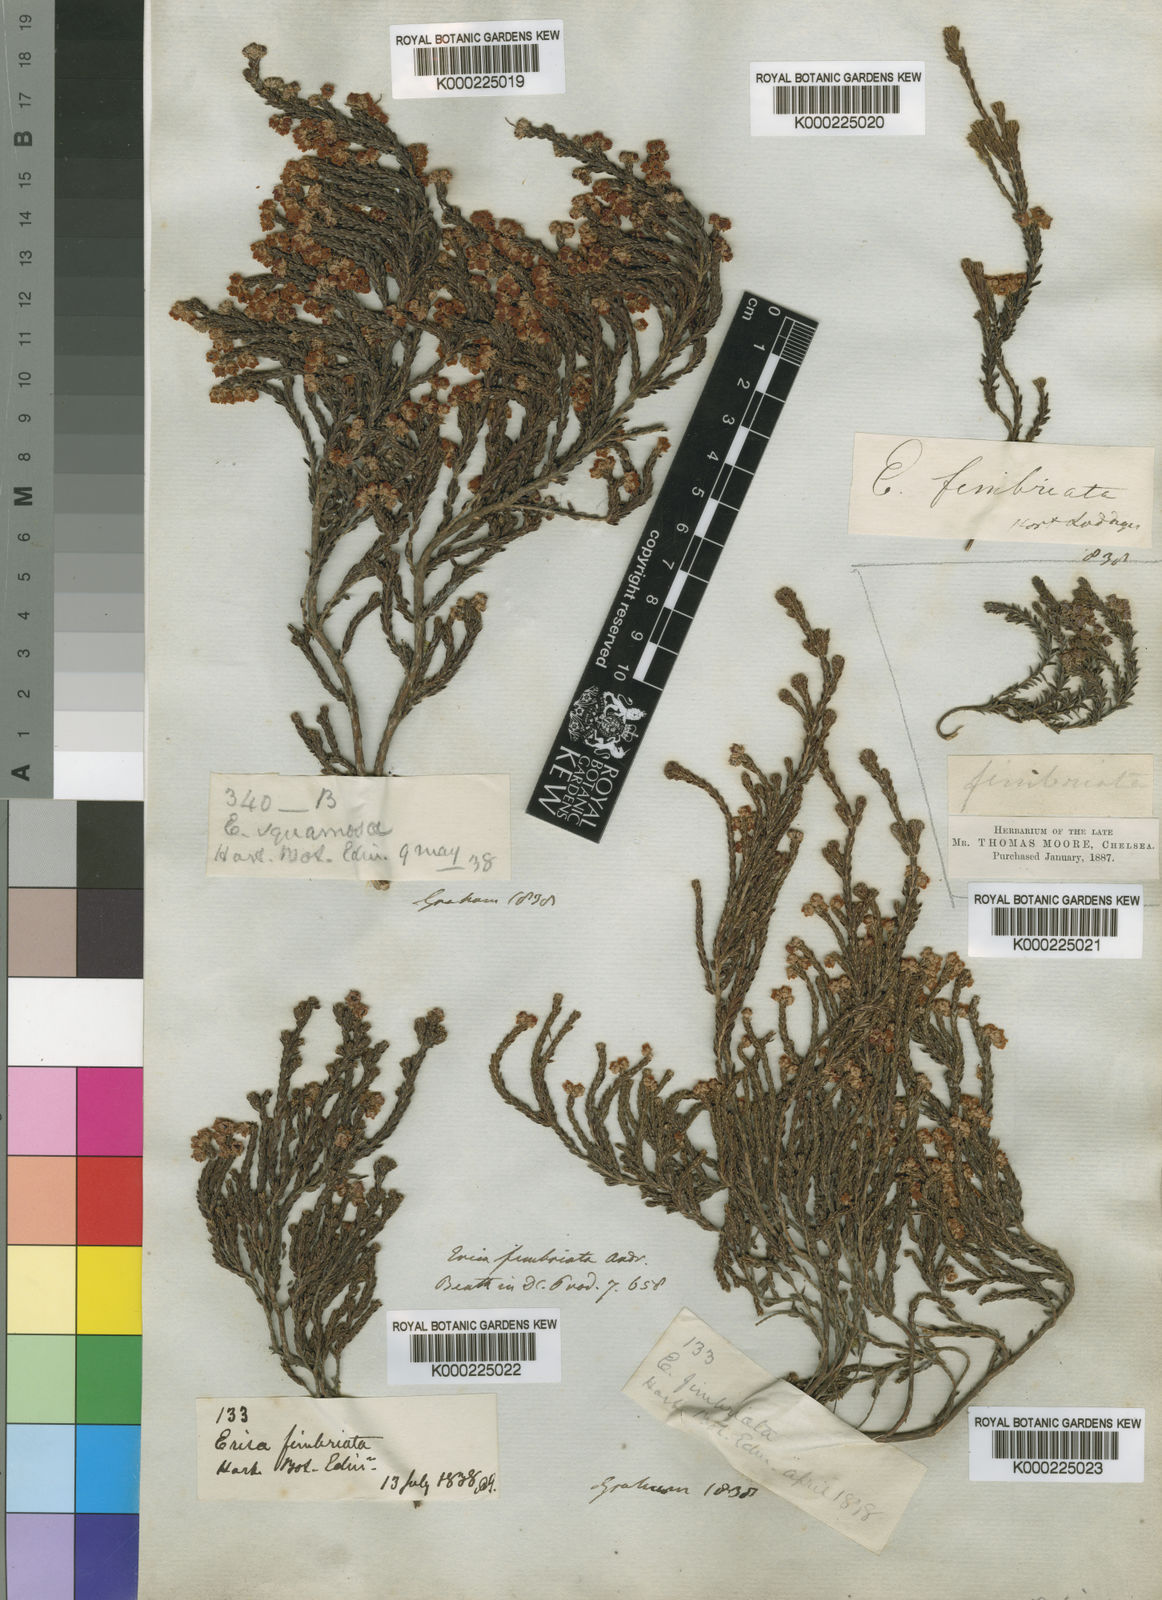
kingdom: Plantae
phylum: Tracheophyta
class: Magnoliopsida
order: Ericales
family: Ericaceae
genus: Erica
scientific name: Erica fimbriata
